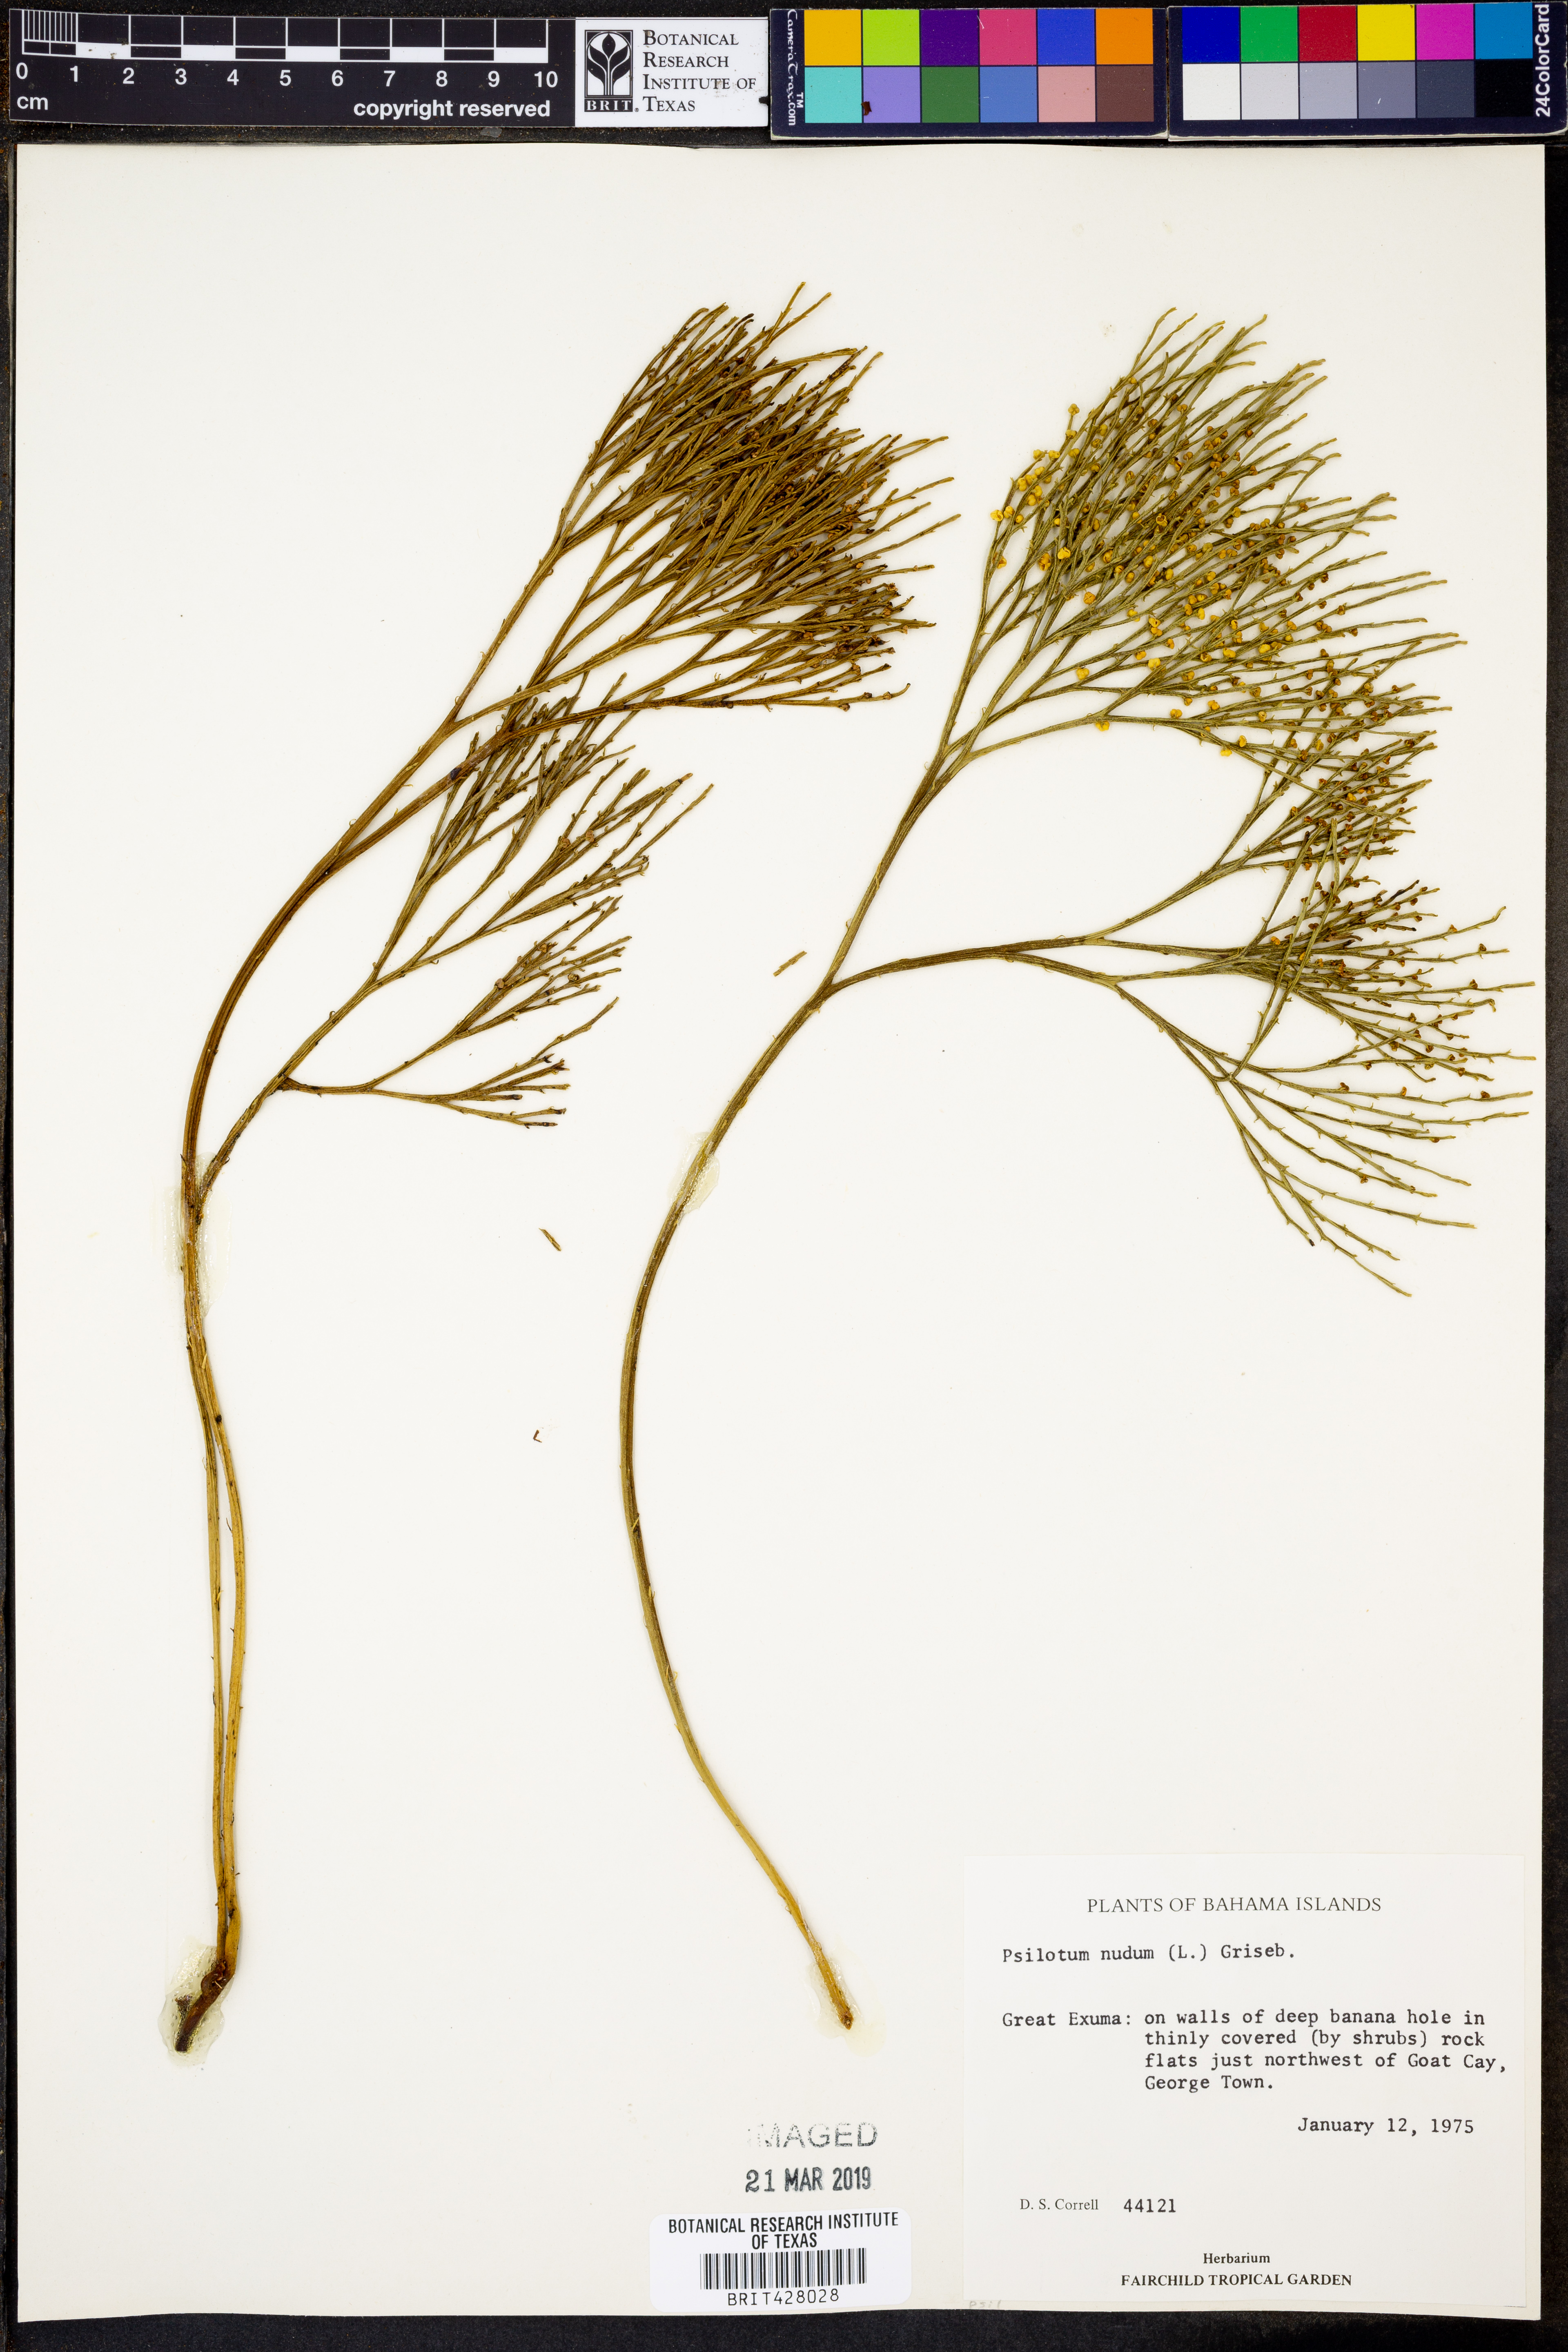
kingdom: Plantae
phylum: Tracheophyta
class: Polypodiopsida
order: Psilotales
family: Psilotaceae
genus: Psilotum
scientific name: Psilotum nudum
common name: Skeleton fork fern
